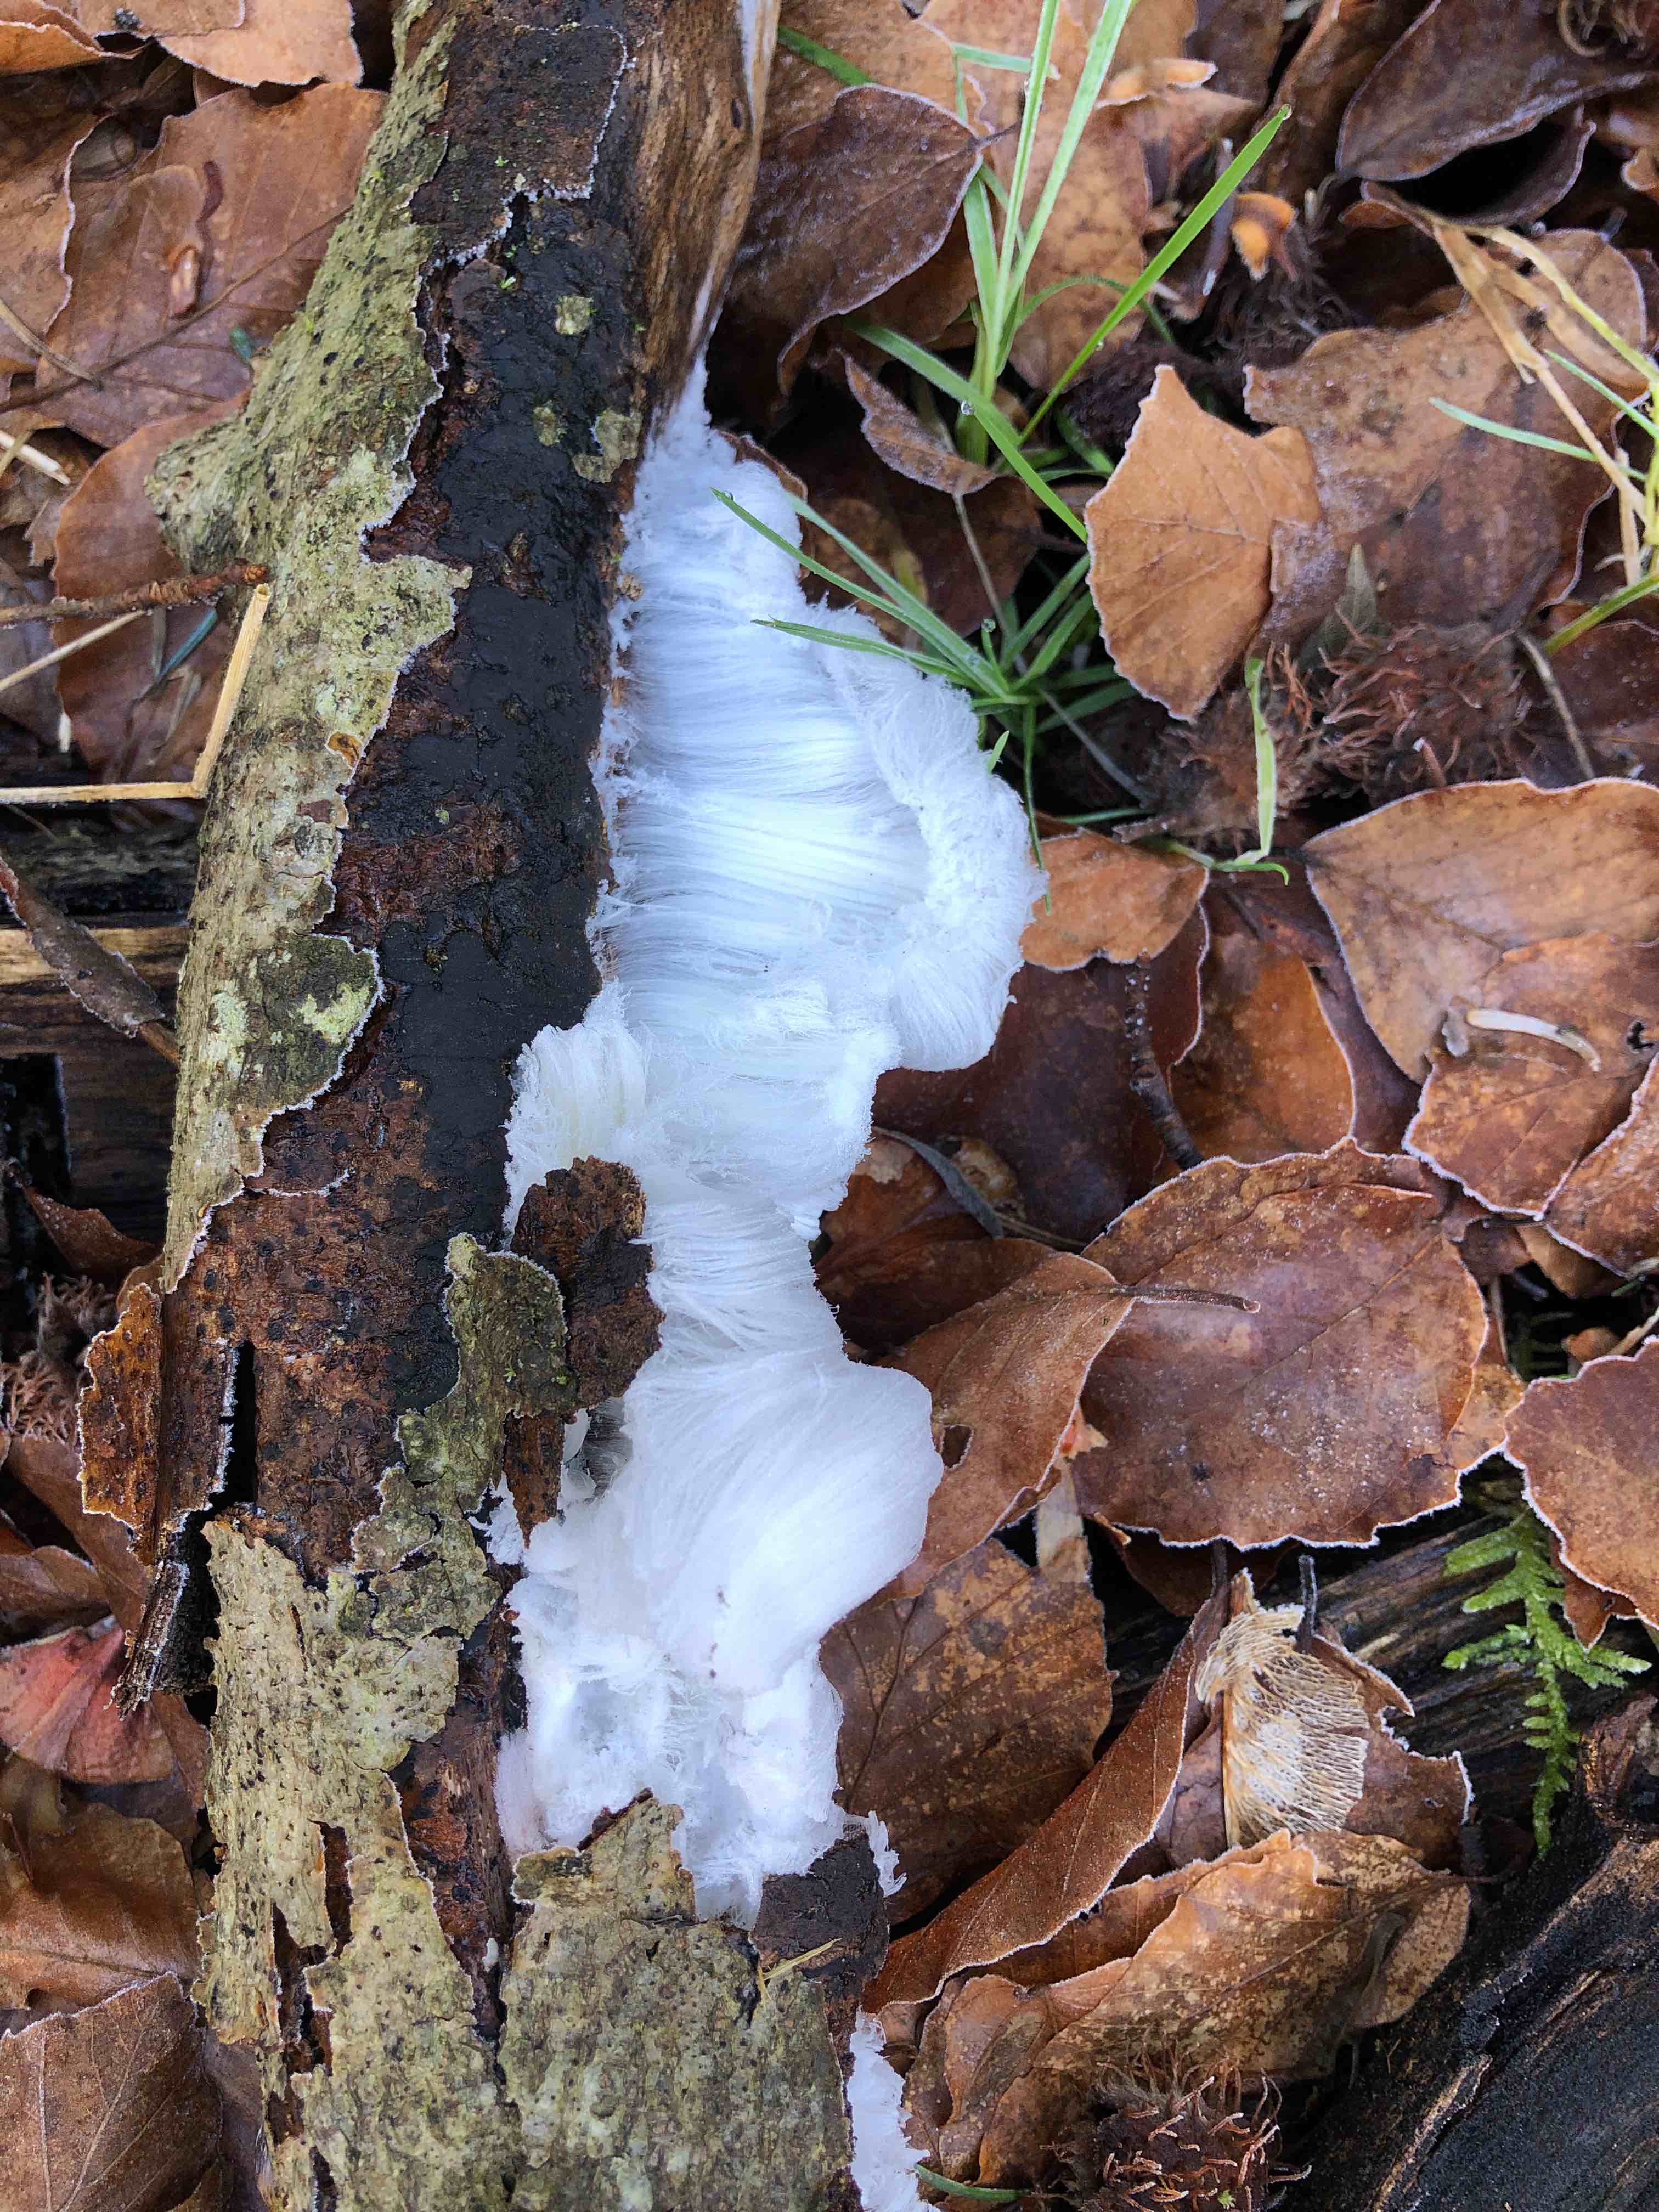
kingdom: Fungi
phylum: Basidiomycota
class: Tremellomycetes
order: Tremellales
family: Exidiaceae
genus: Exidiopsis
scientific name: Exidiopsis effusa
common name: smuk bævrehinde
